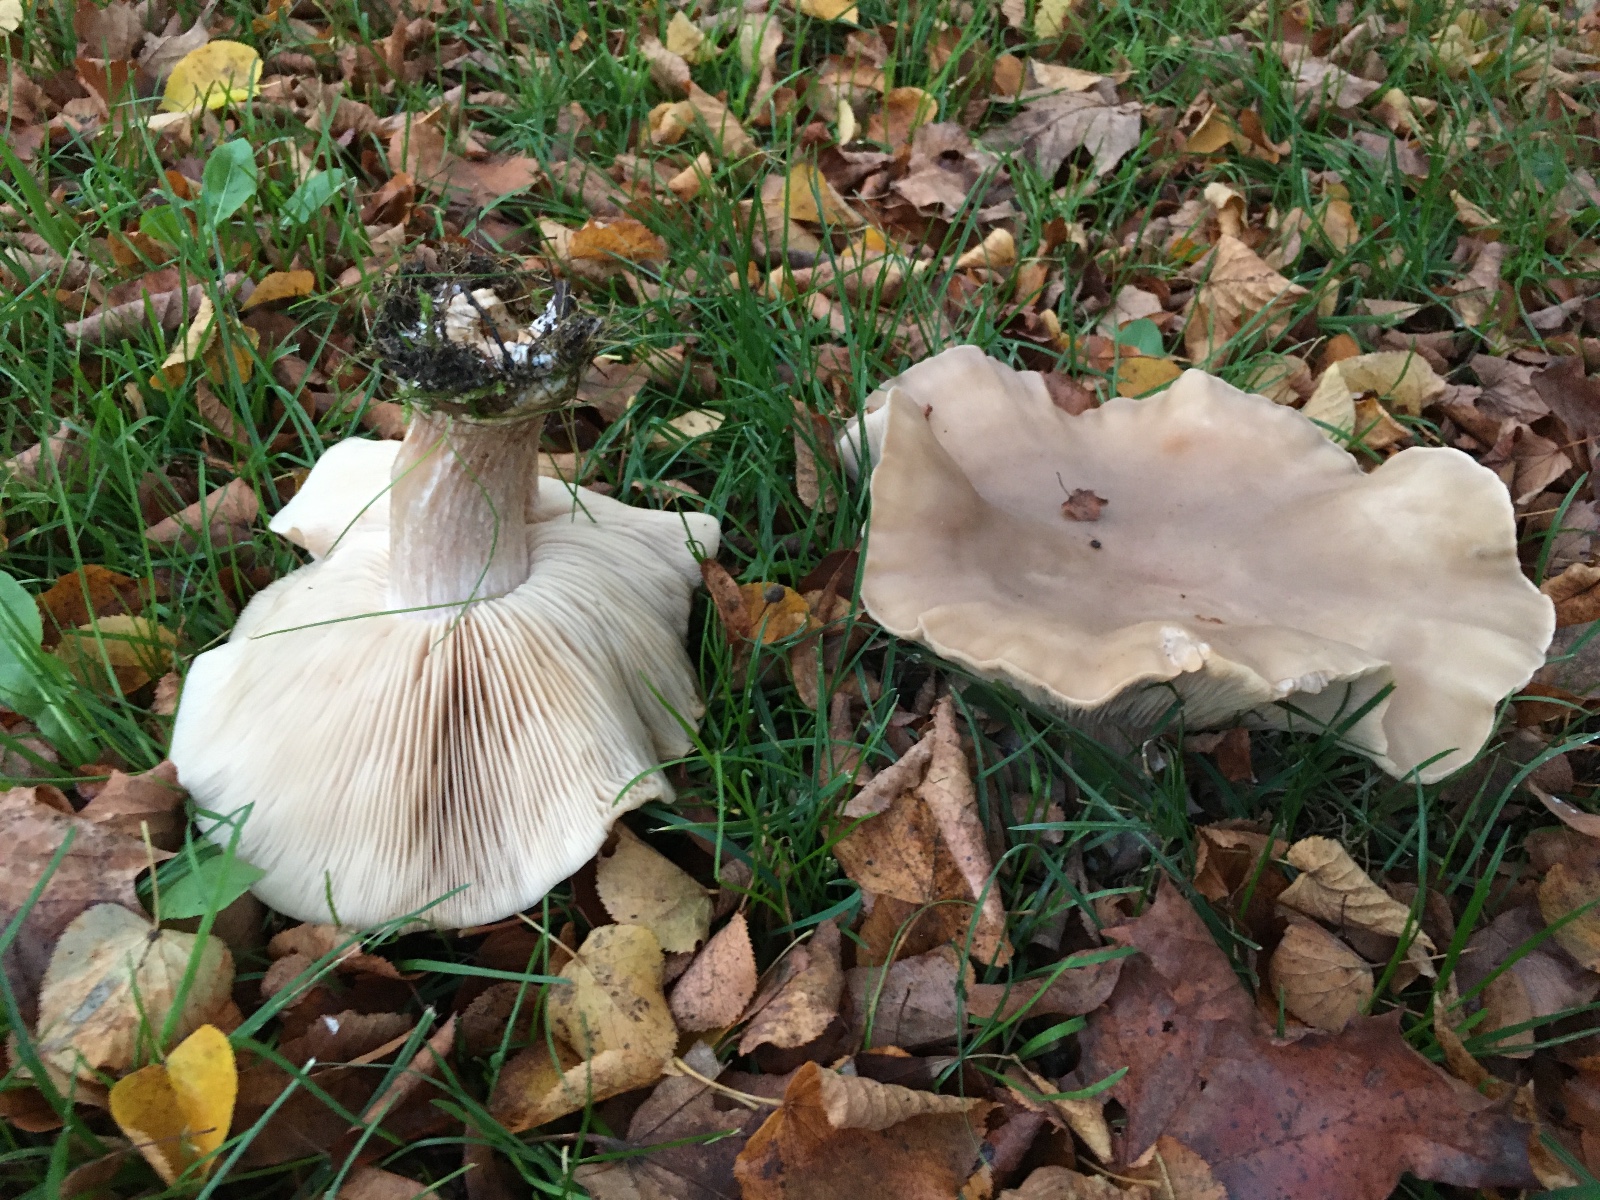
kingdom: Fungi
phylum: Basidiomycota
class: Agaricomycetes
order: Agaricales
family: Tricholomataceae
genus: Lepista
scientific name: Lepista personata
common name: bleg hekseringshat
